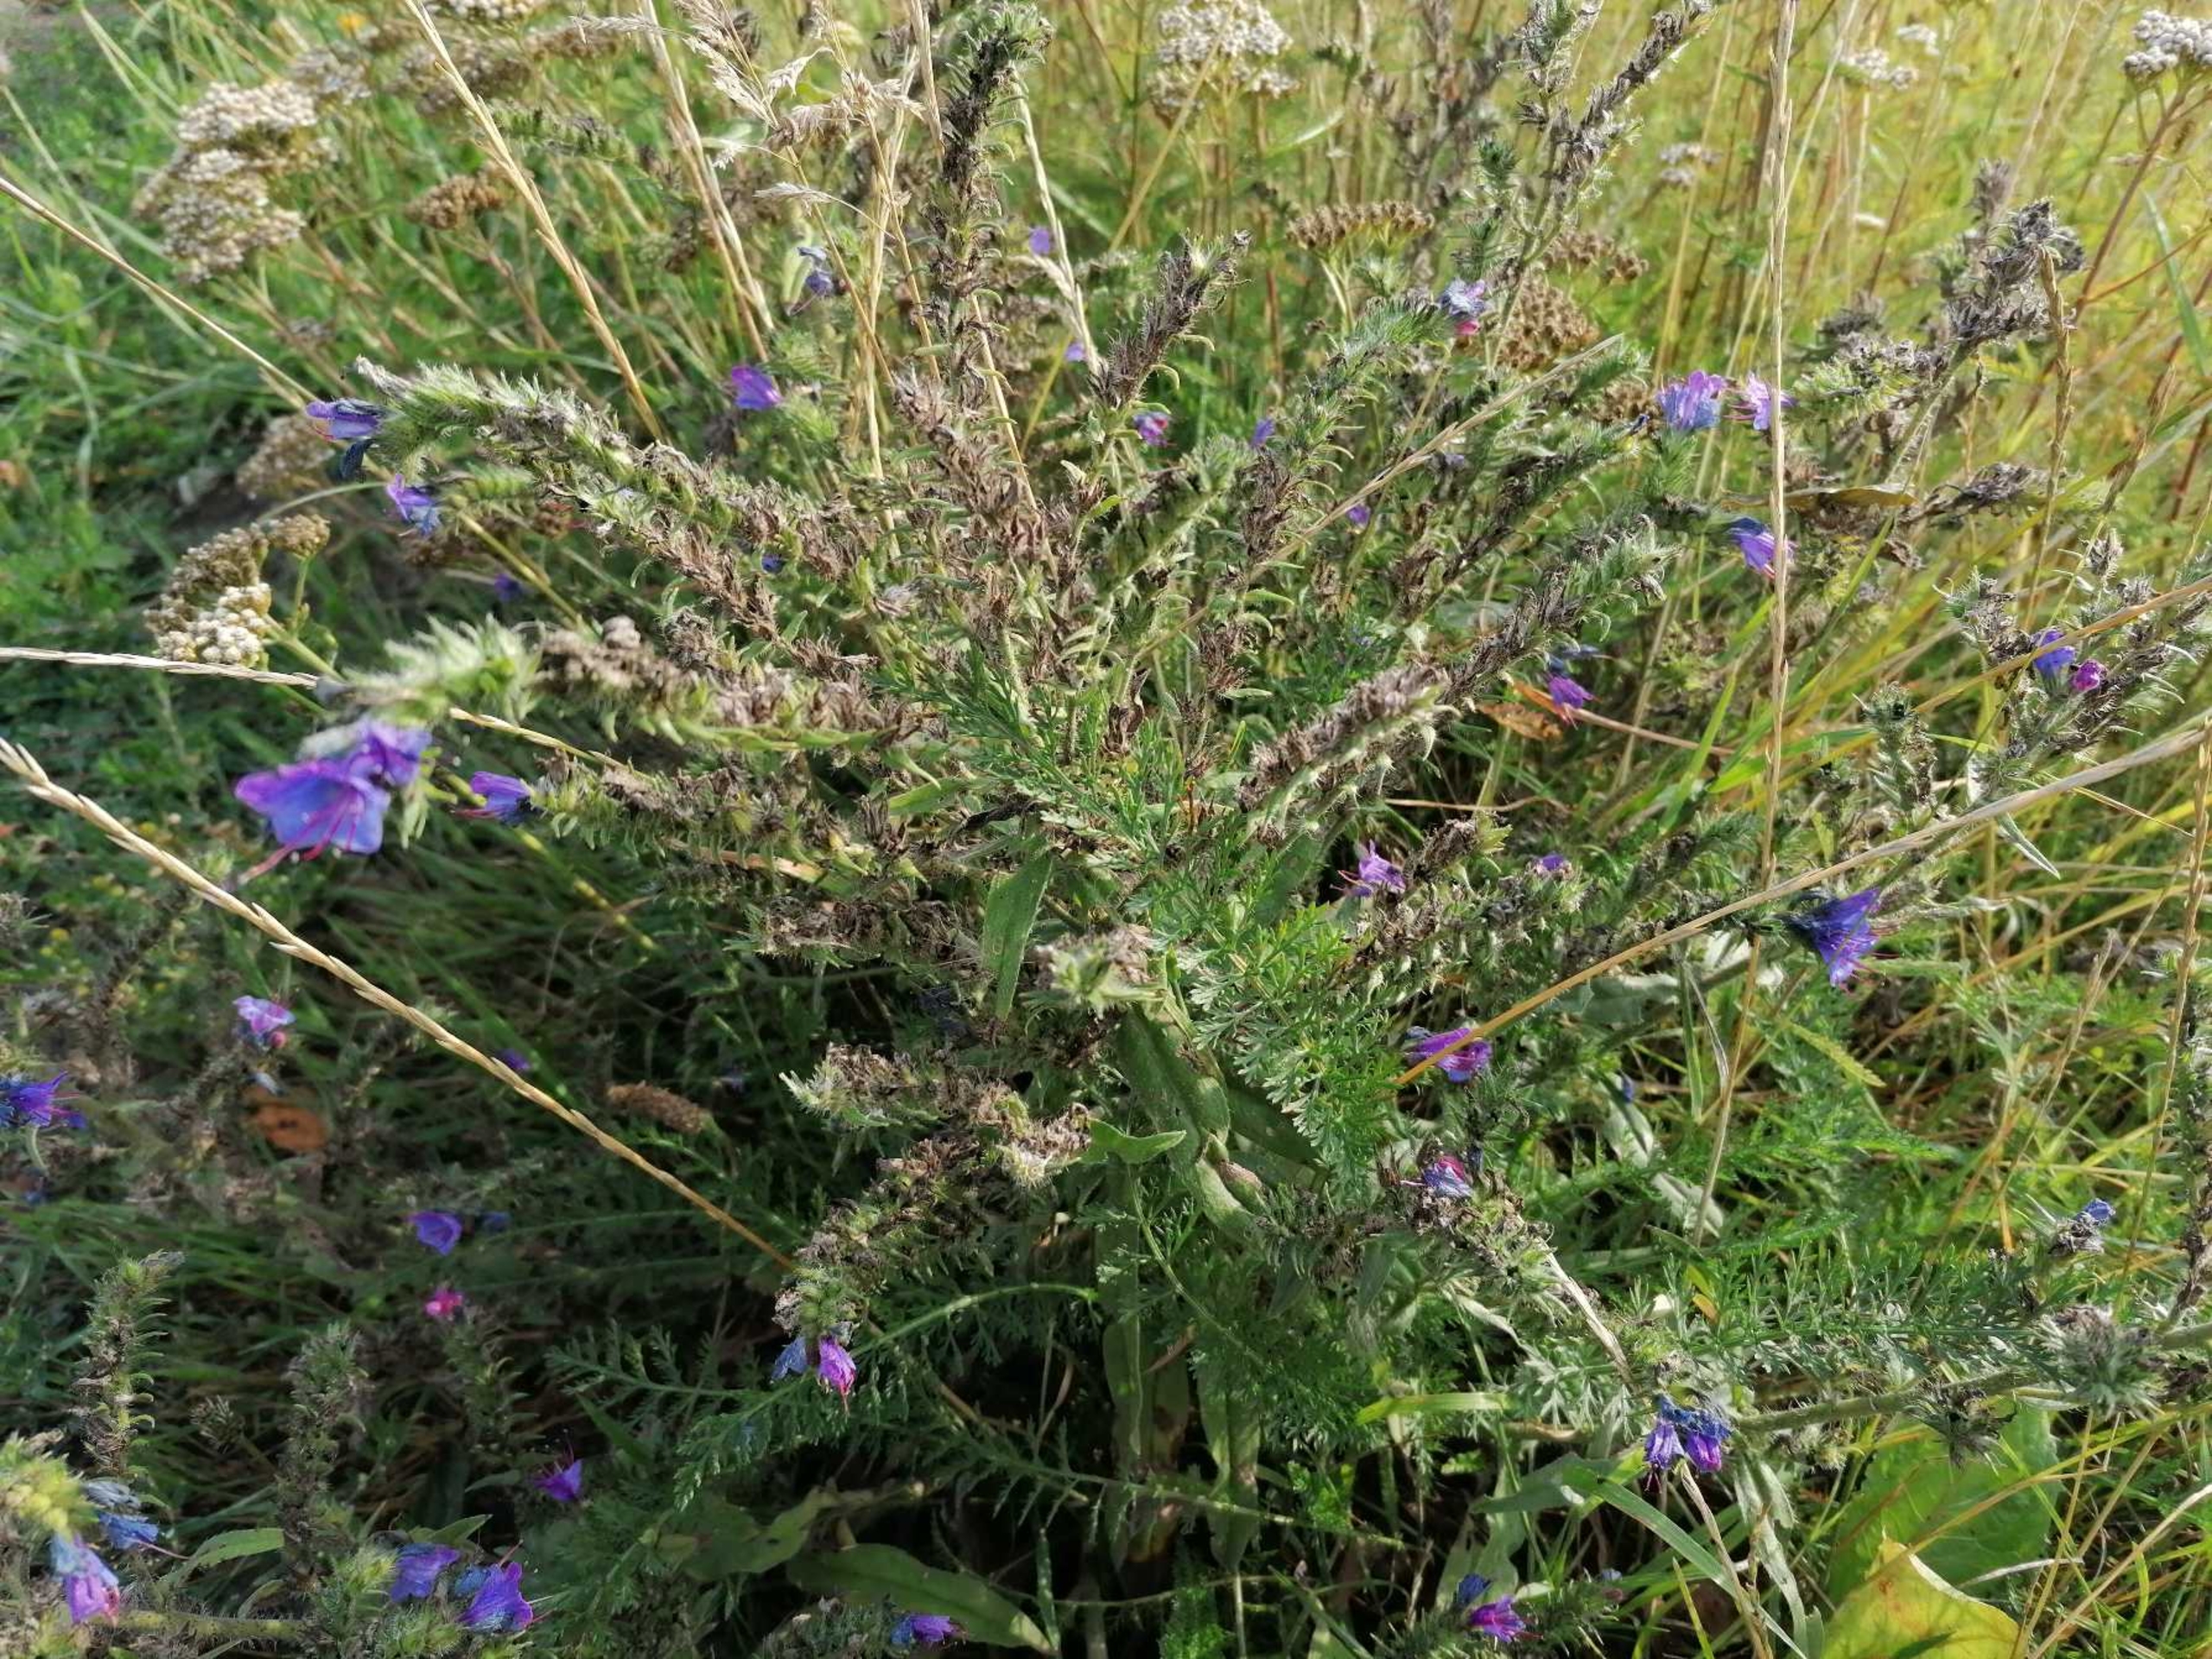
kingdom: Plantae
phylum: Tracheophyta
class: Magnoliopsida
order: Boraginales
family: Boraginaceae
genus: Echium
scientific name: Echium vulgare
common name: Slangehoved
